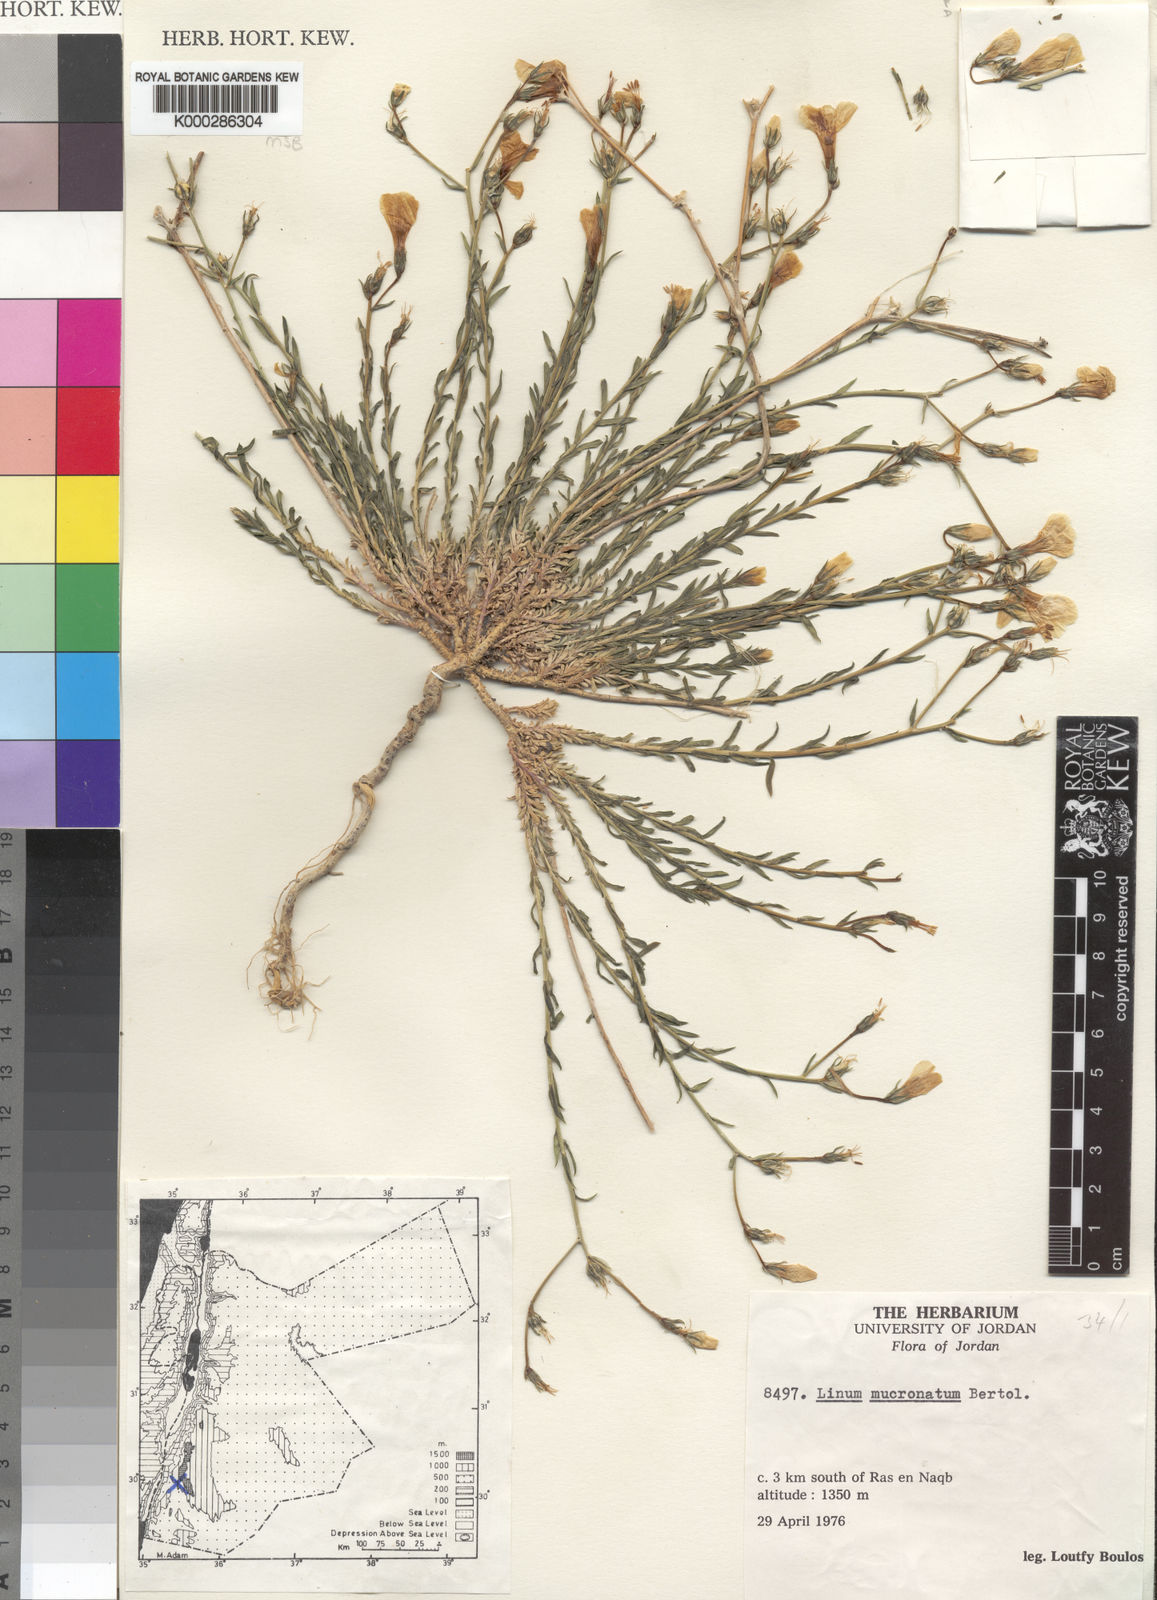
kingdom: Plantae
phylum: Tracheophyta
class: Magnoliopsida
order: Malpighiales
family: Linaceae
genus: Linum
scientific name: Linum mucronatum
